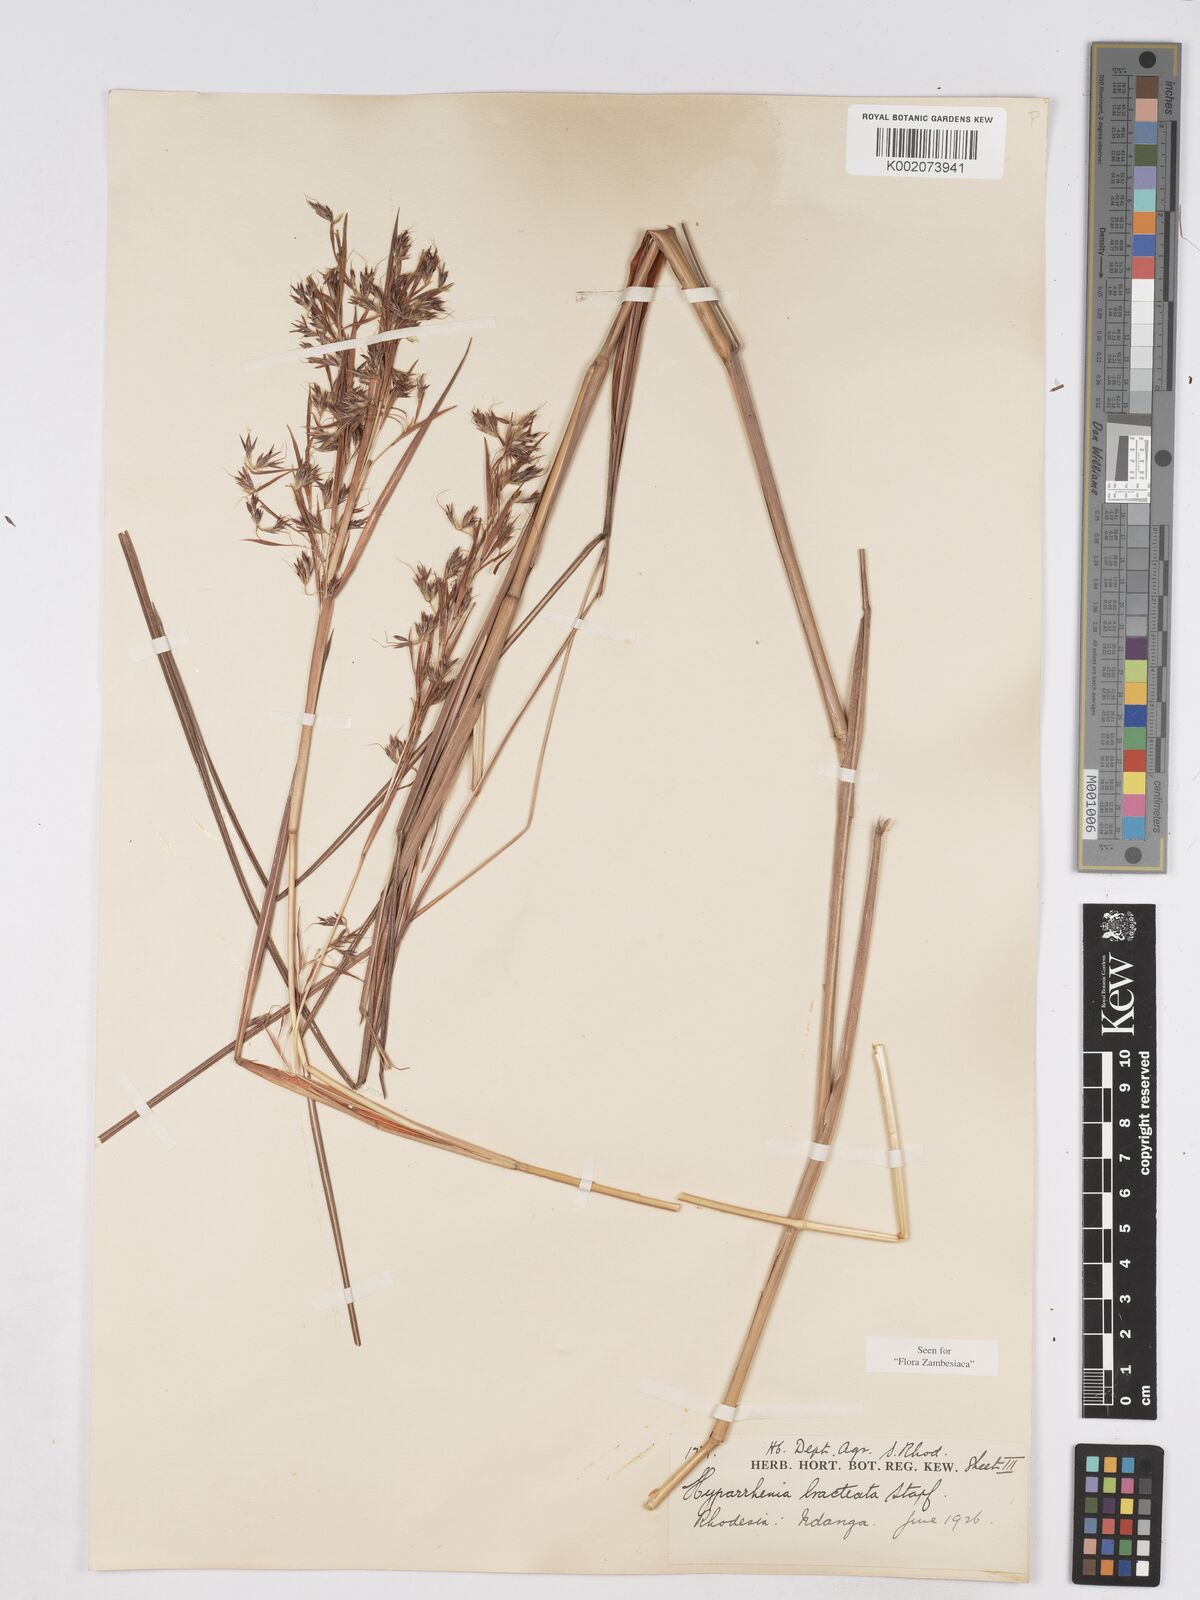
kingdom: Plantae
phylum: Tracheophyta
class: Liliopsida
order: Poales
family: Poaceae
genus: Hyparrhenia
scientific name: Hyparrhenia bracteata
